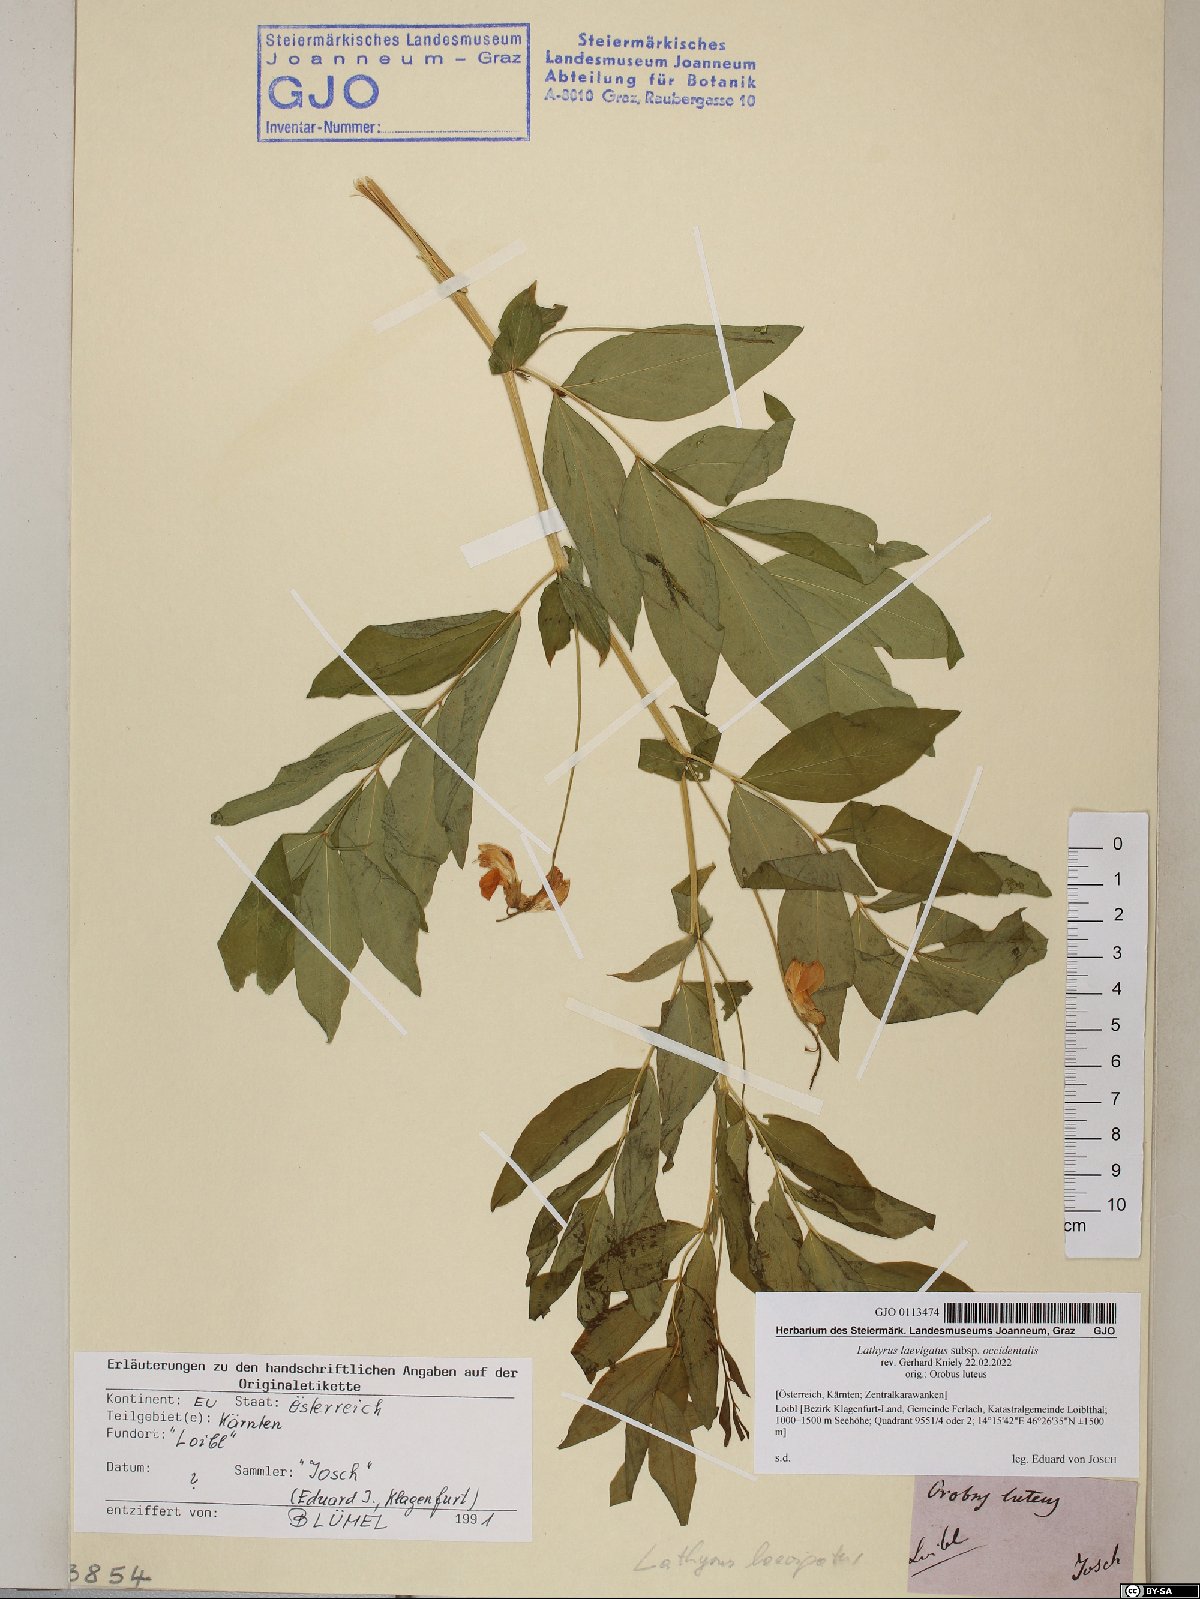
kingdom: Plantae
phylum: Tracheophyta
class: Magnoliopsida
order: Fabales
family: Fabaceae
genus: Lathyrus
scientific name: Lathyrus laevigatus
